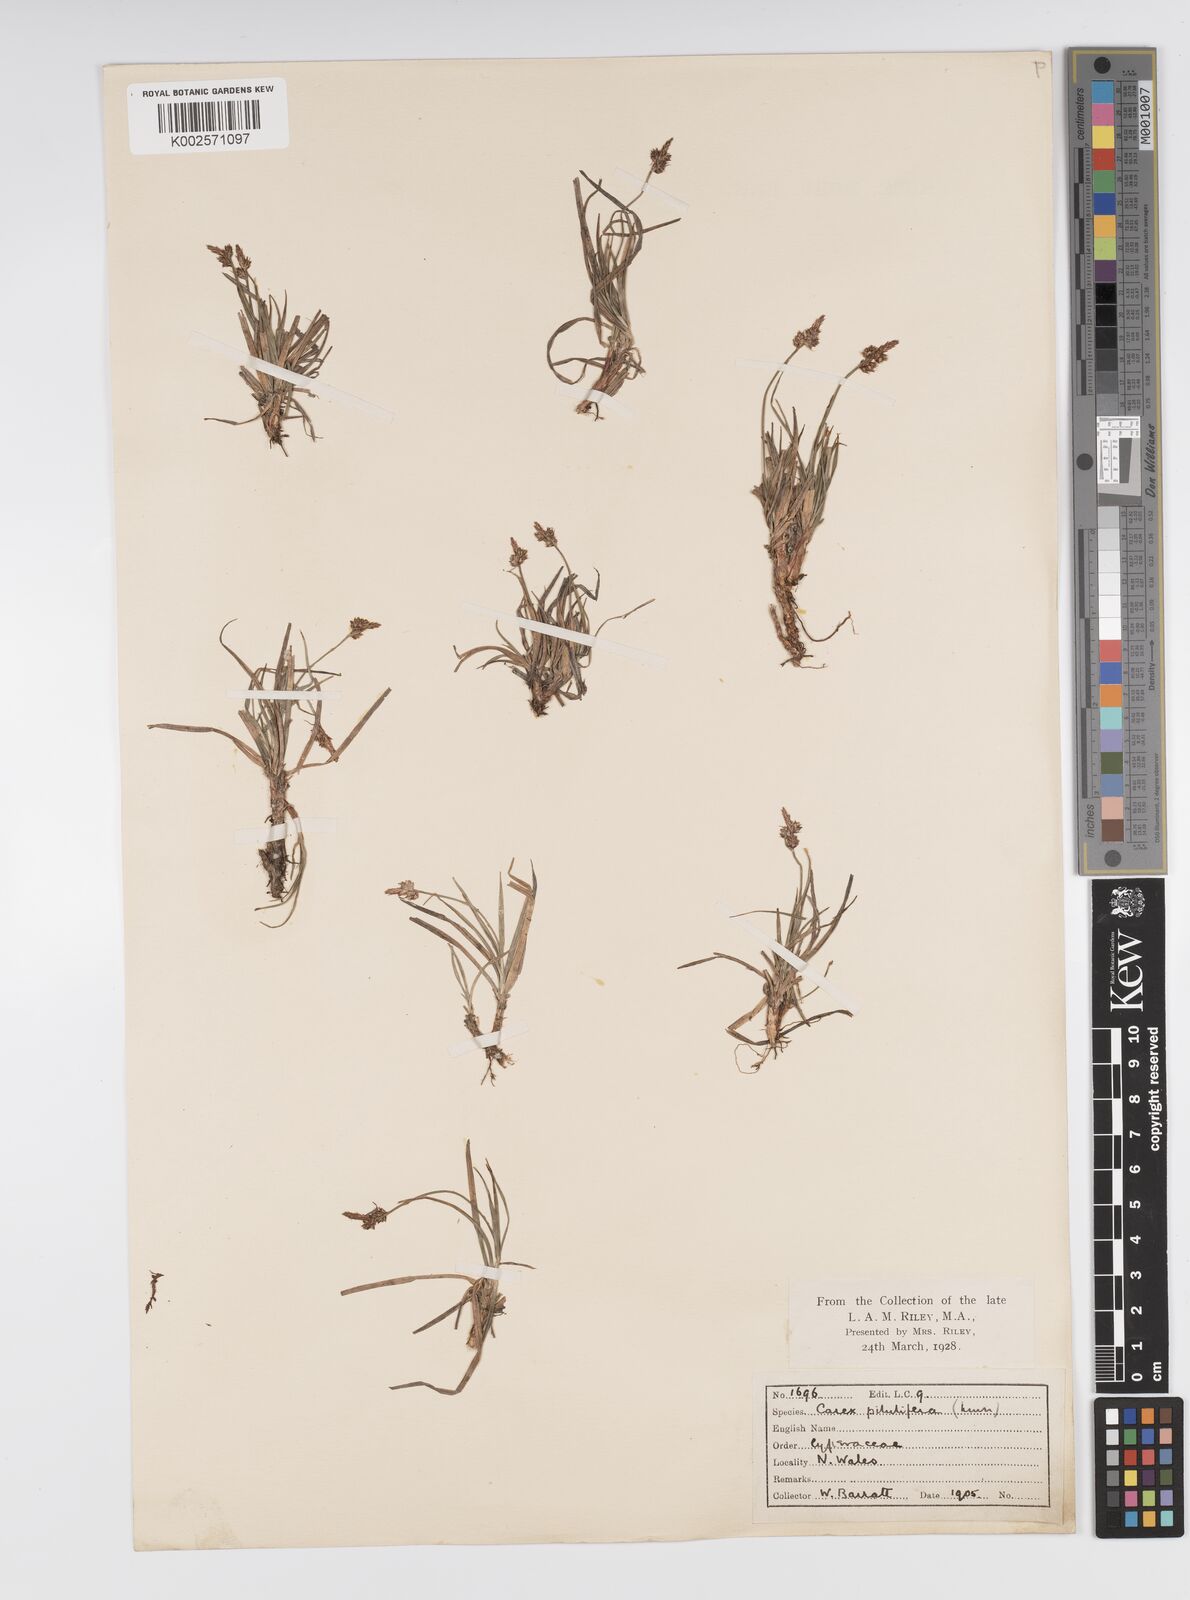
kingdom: Plantae
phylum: Tracheophyta
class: Liliopsida
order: Poales
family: Cyperaceae
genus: Carex
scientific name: Carex pilulifera
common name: Pill sedge
